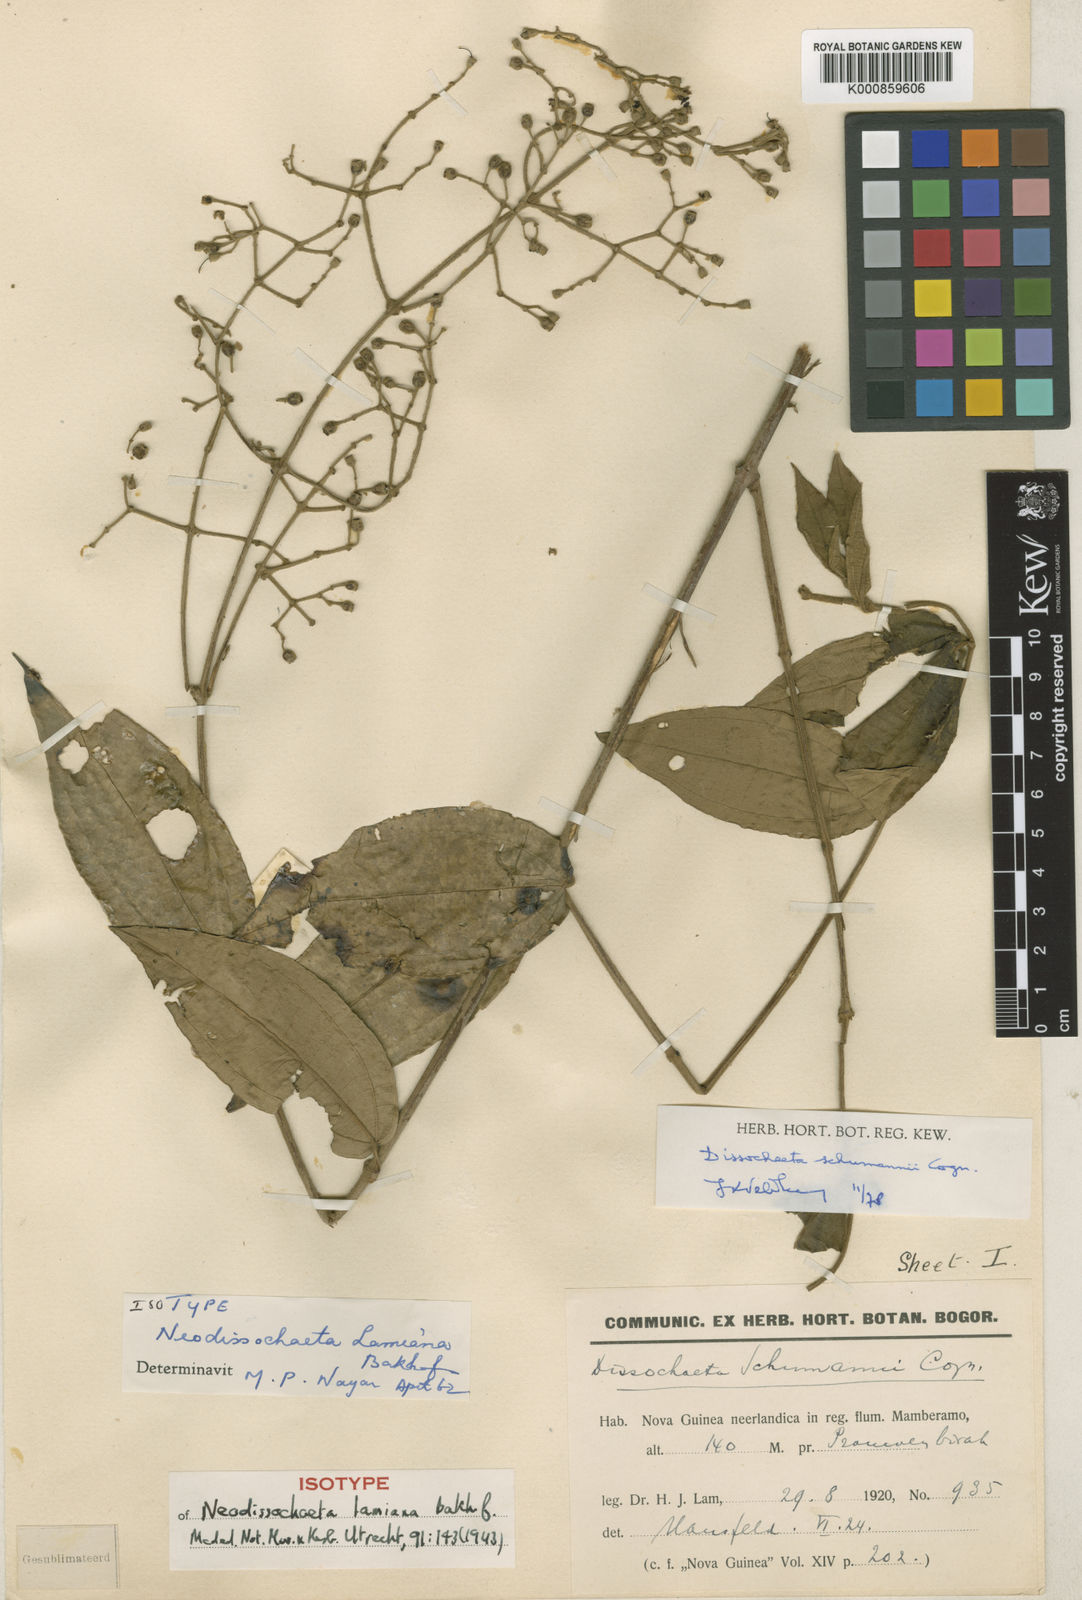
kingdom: Plantae
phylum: Tracheophyta
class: Magnoliopsida
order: Myrtales
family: Melastomataceae
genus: Dissochaeta
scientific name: Dissochaeta schumannii
